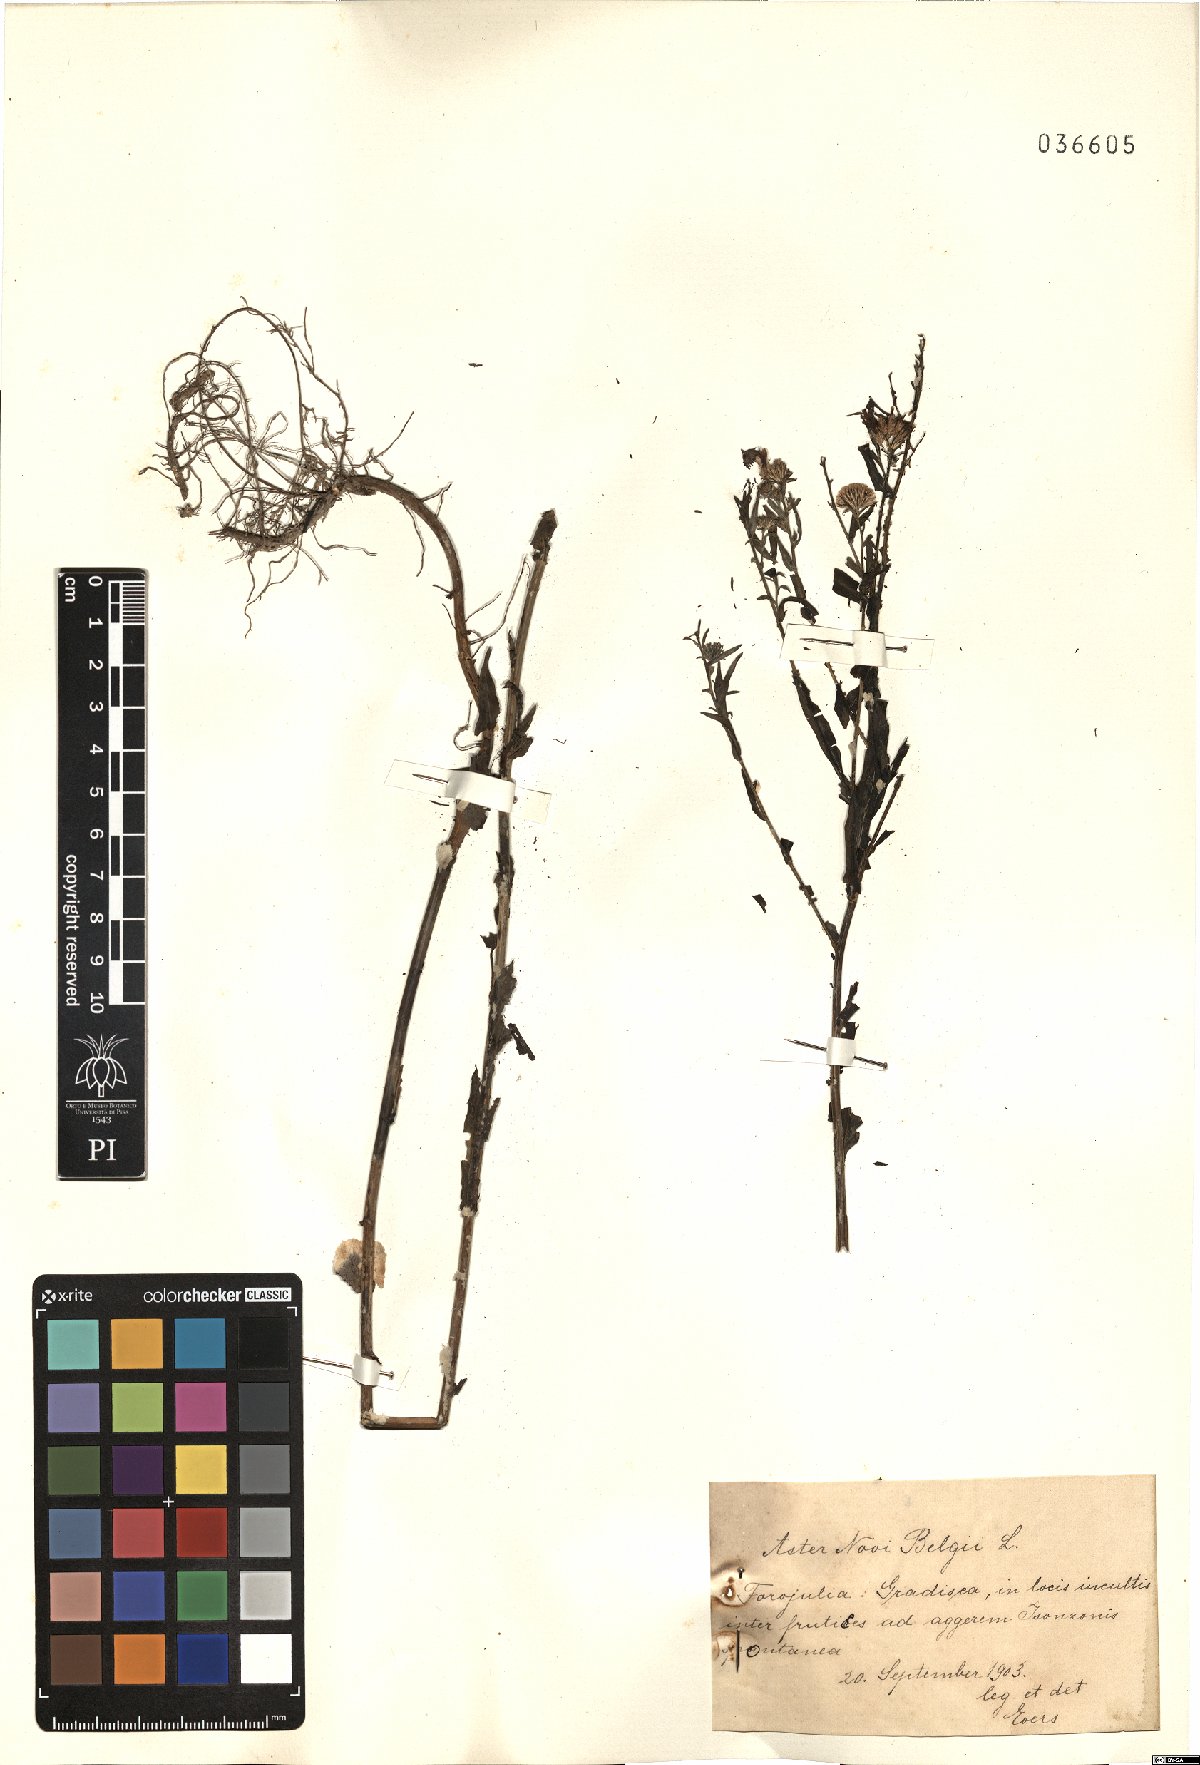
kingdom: Plantae
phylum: Tracheophyta
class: Magnoliopsida
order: Asterales
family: Asteraceae
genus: Symphyotrichum
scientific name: Symphyotrichum novi-belgii
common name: Michaelmas daisy
